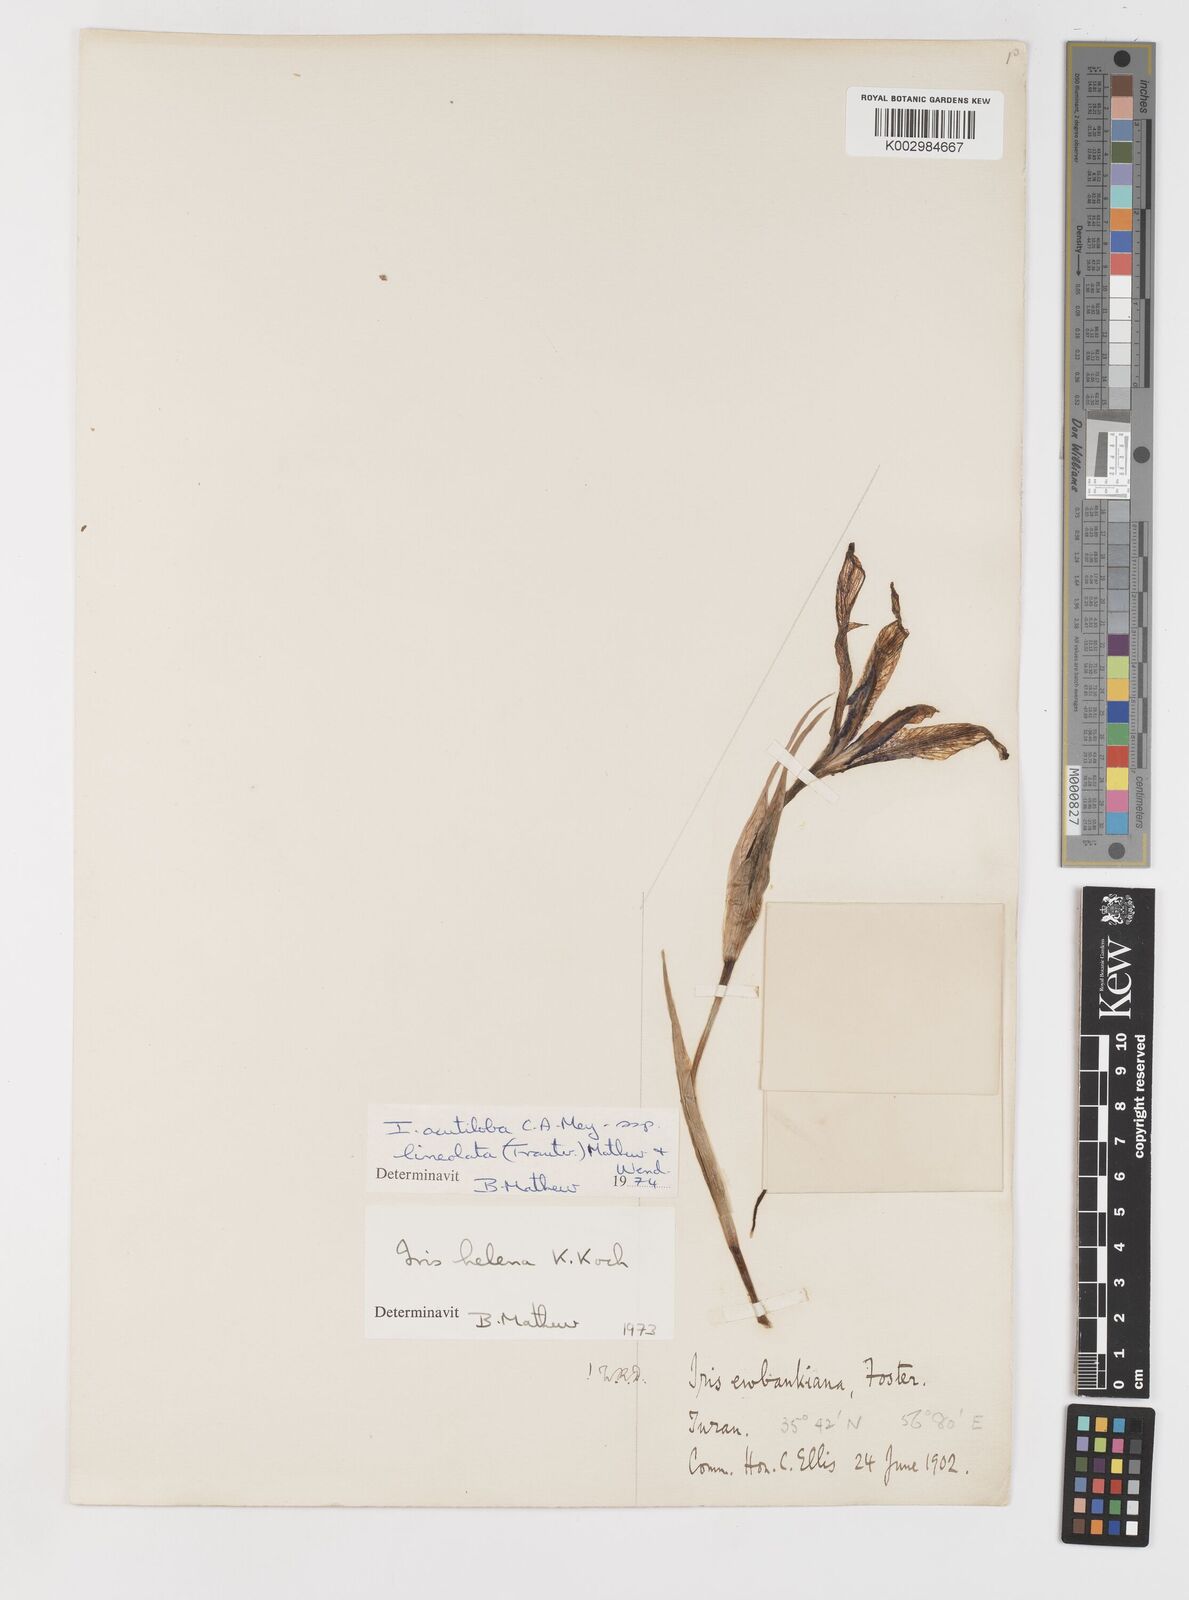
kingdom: Plantae
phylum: Tracheophyta
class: Liliopsida
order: Asparagales
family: Iridaceae
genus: Iris
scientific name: Iris acutiloba
